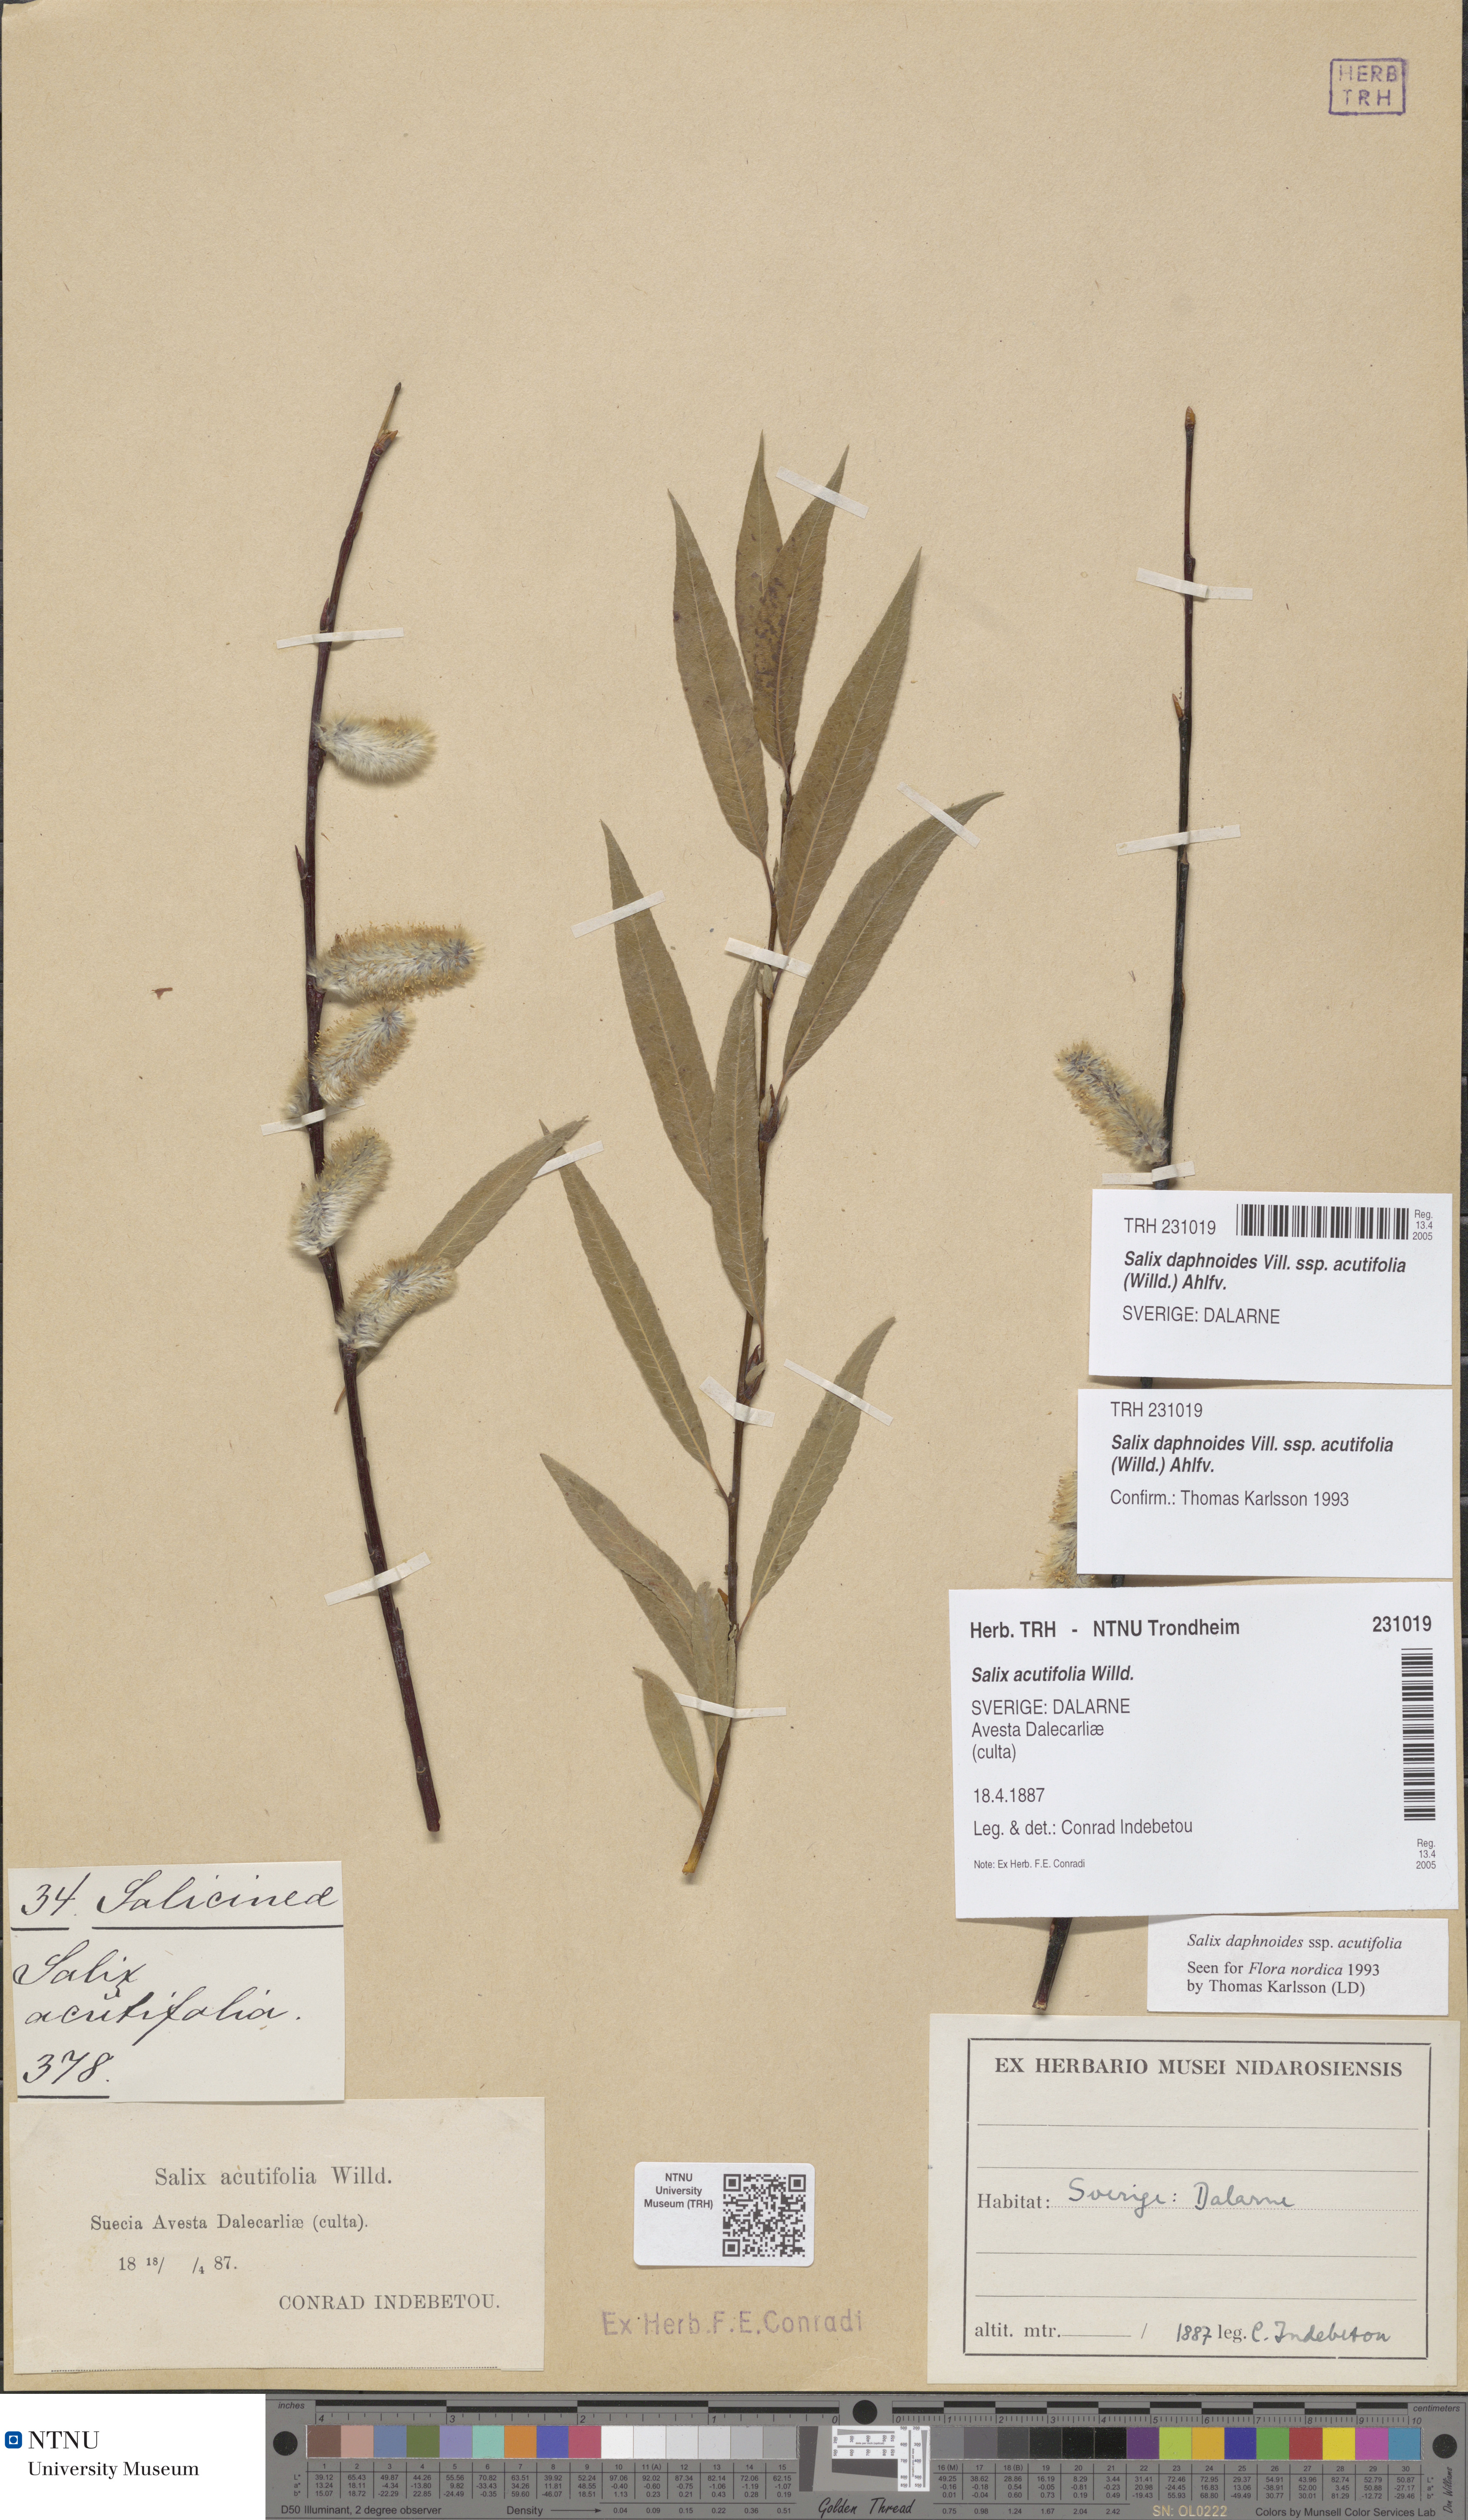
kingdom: Plantae
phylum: Tracheophyta
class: Magnoliopsida
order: Malpighiales
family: Salicaceae
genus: Salix
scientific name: Salix acutifolia
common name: Siberian violet-willow
